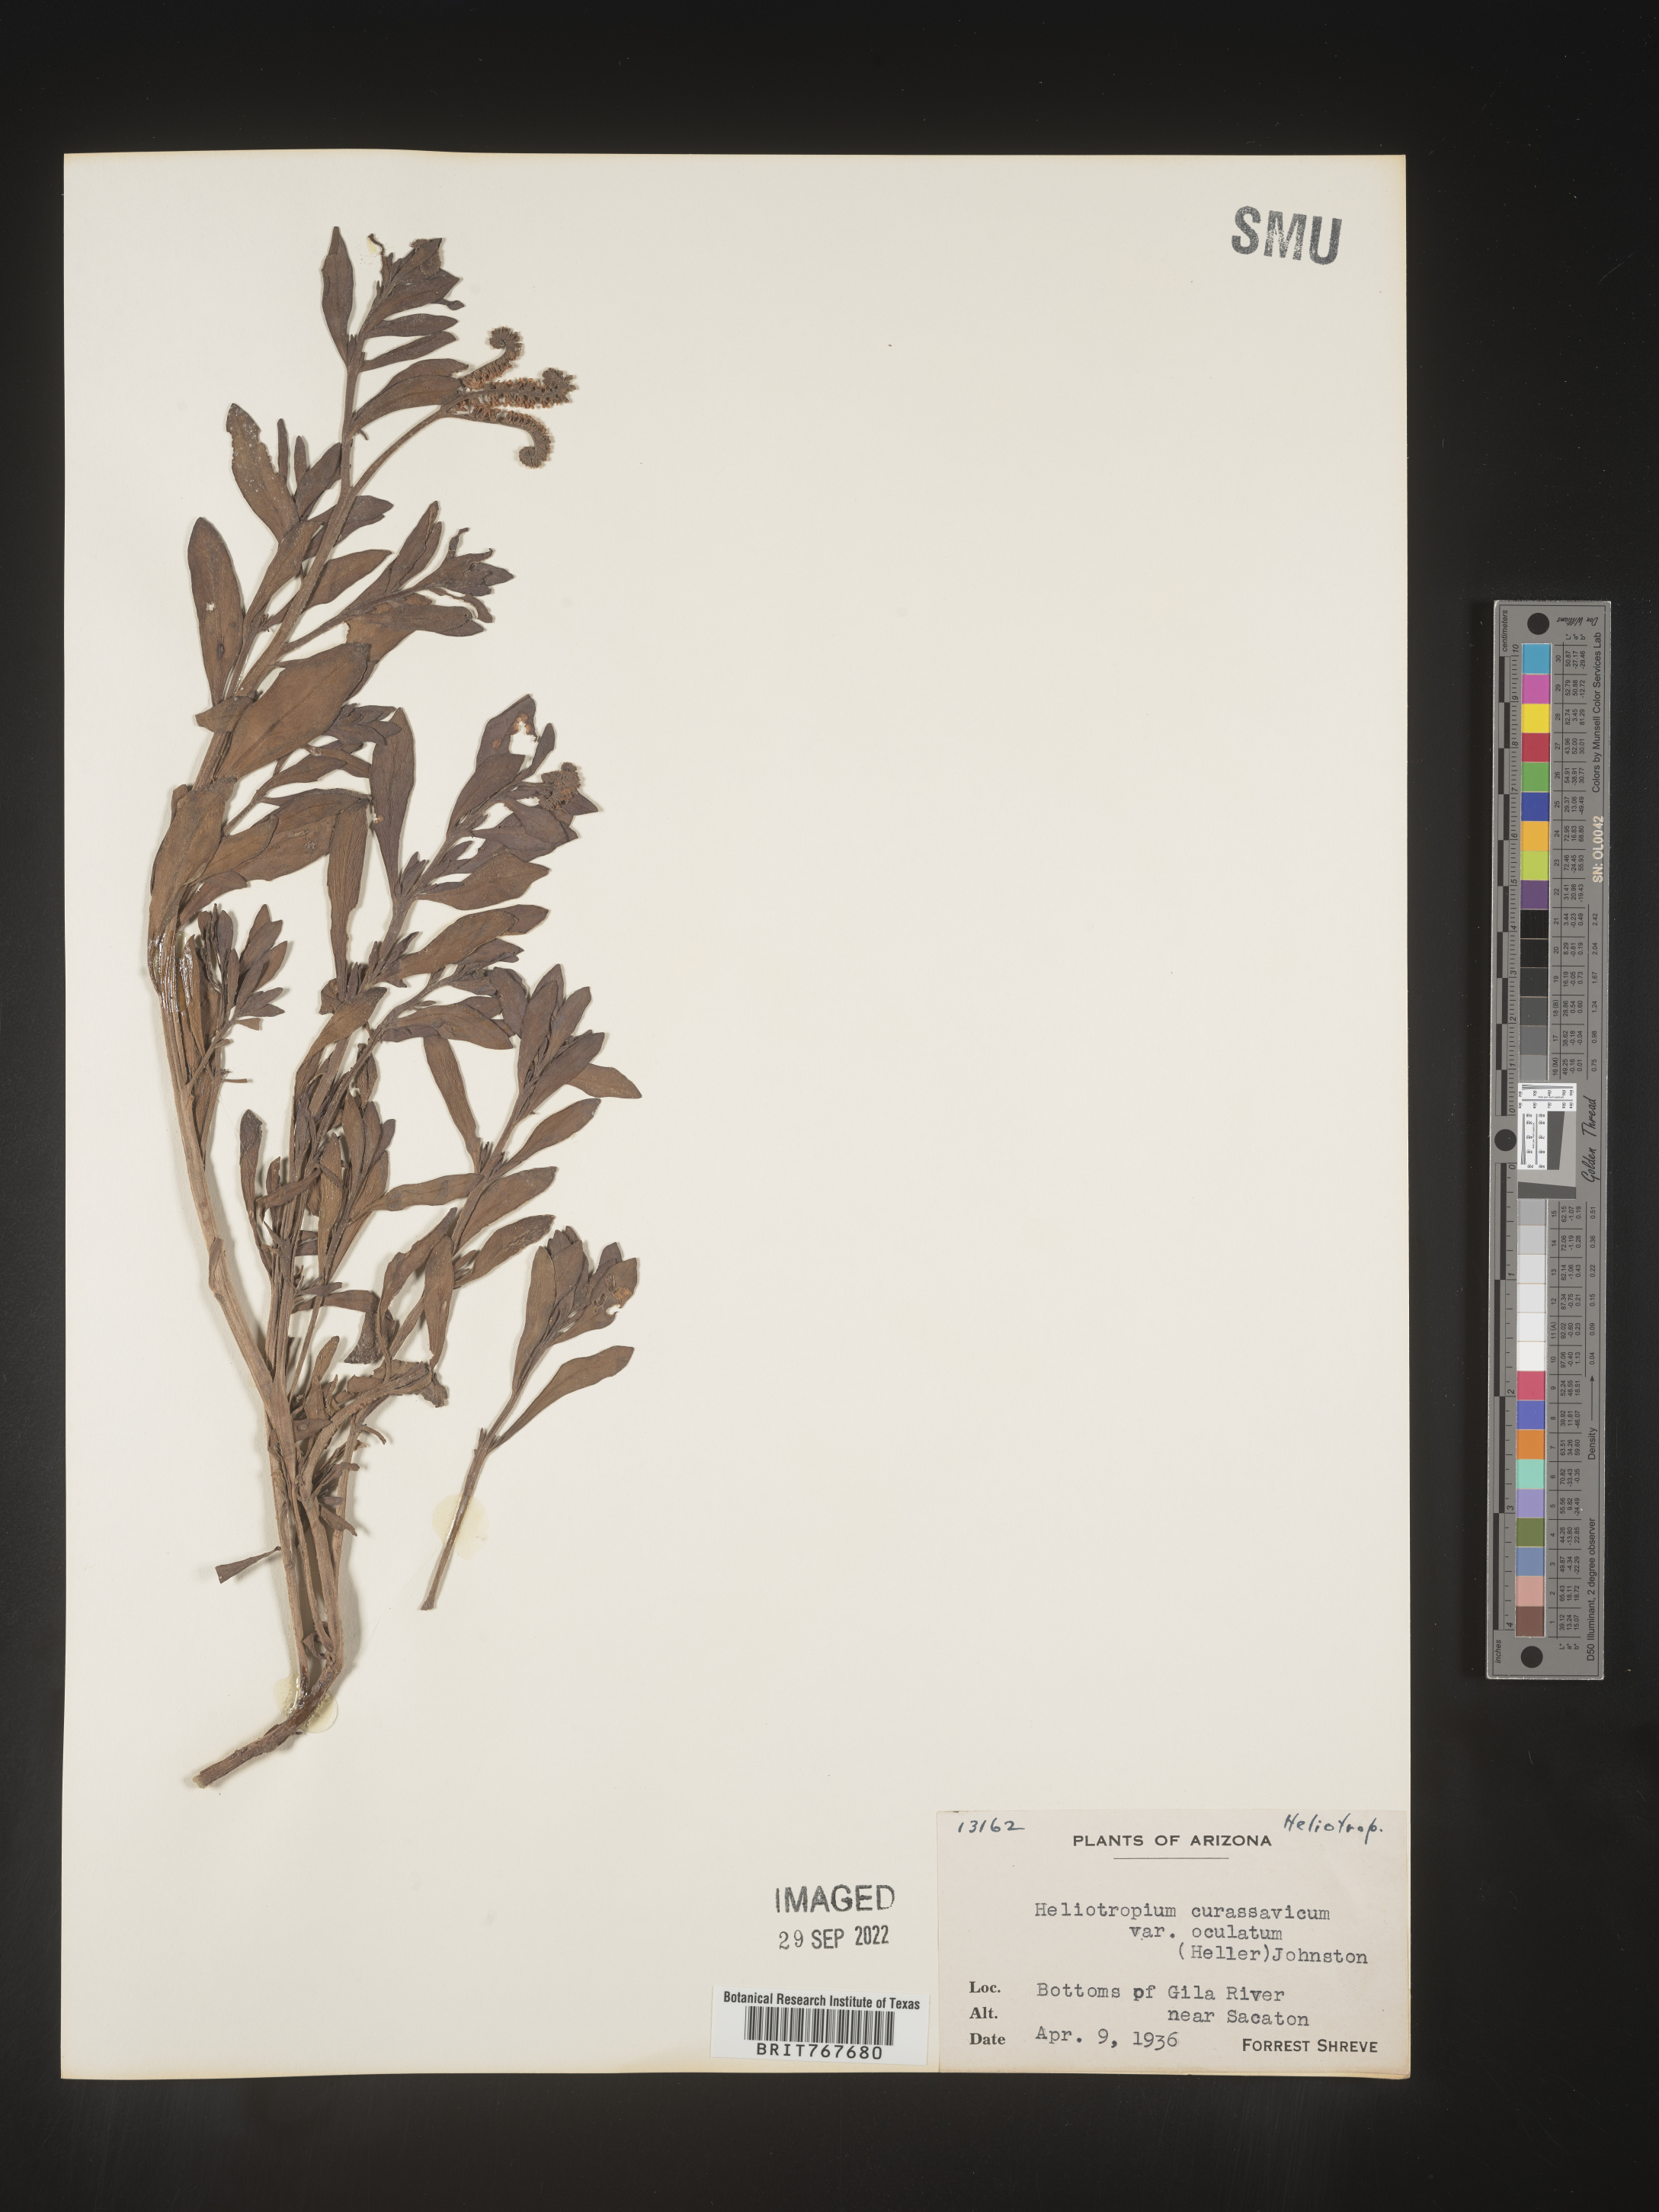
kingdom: Plantae
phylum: Tracheophyta
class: Magnoliopsida
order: Boraginales
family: Heliotropiaceae
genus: Heliotropium
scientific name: Heliotropium curassavicum
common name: Seaside heliotrope
